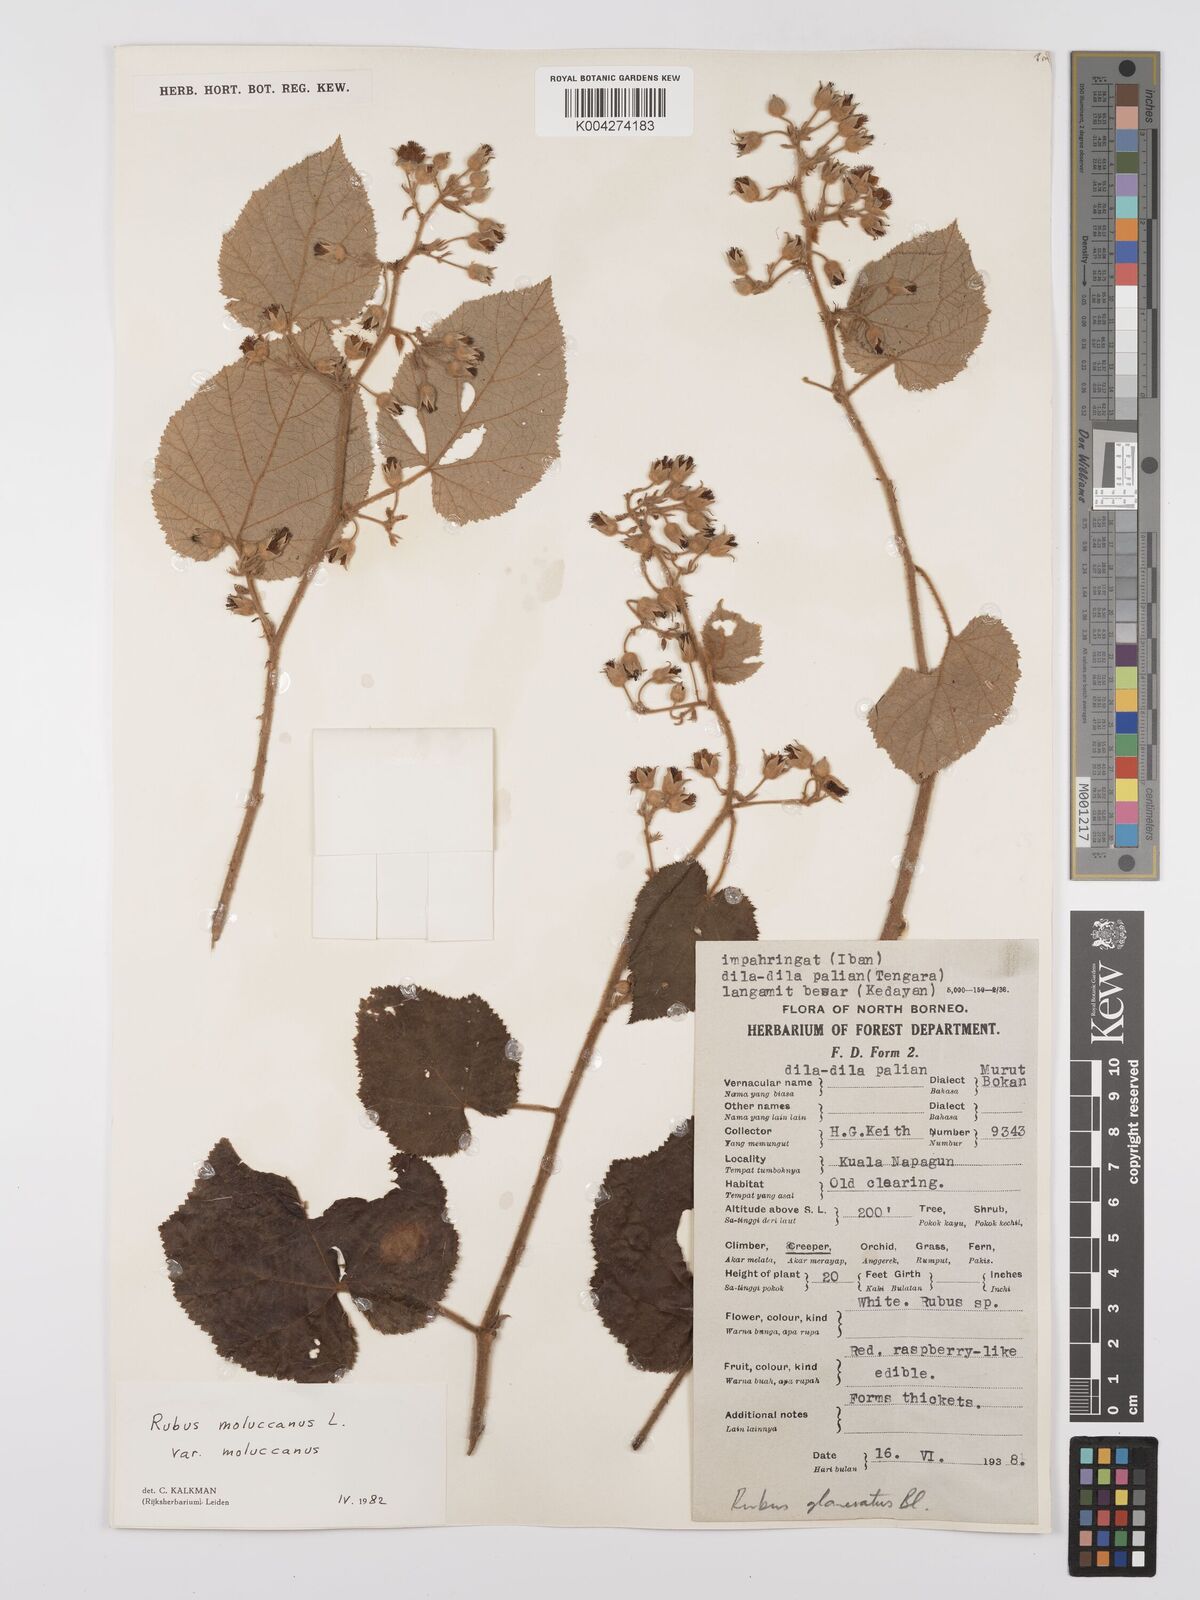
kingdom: Plantae
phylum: Tracheophyta
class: Magnoliopsida
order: Rosales
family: Rosaceae
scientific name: Rosaceae
